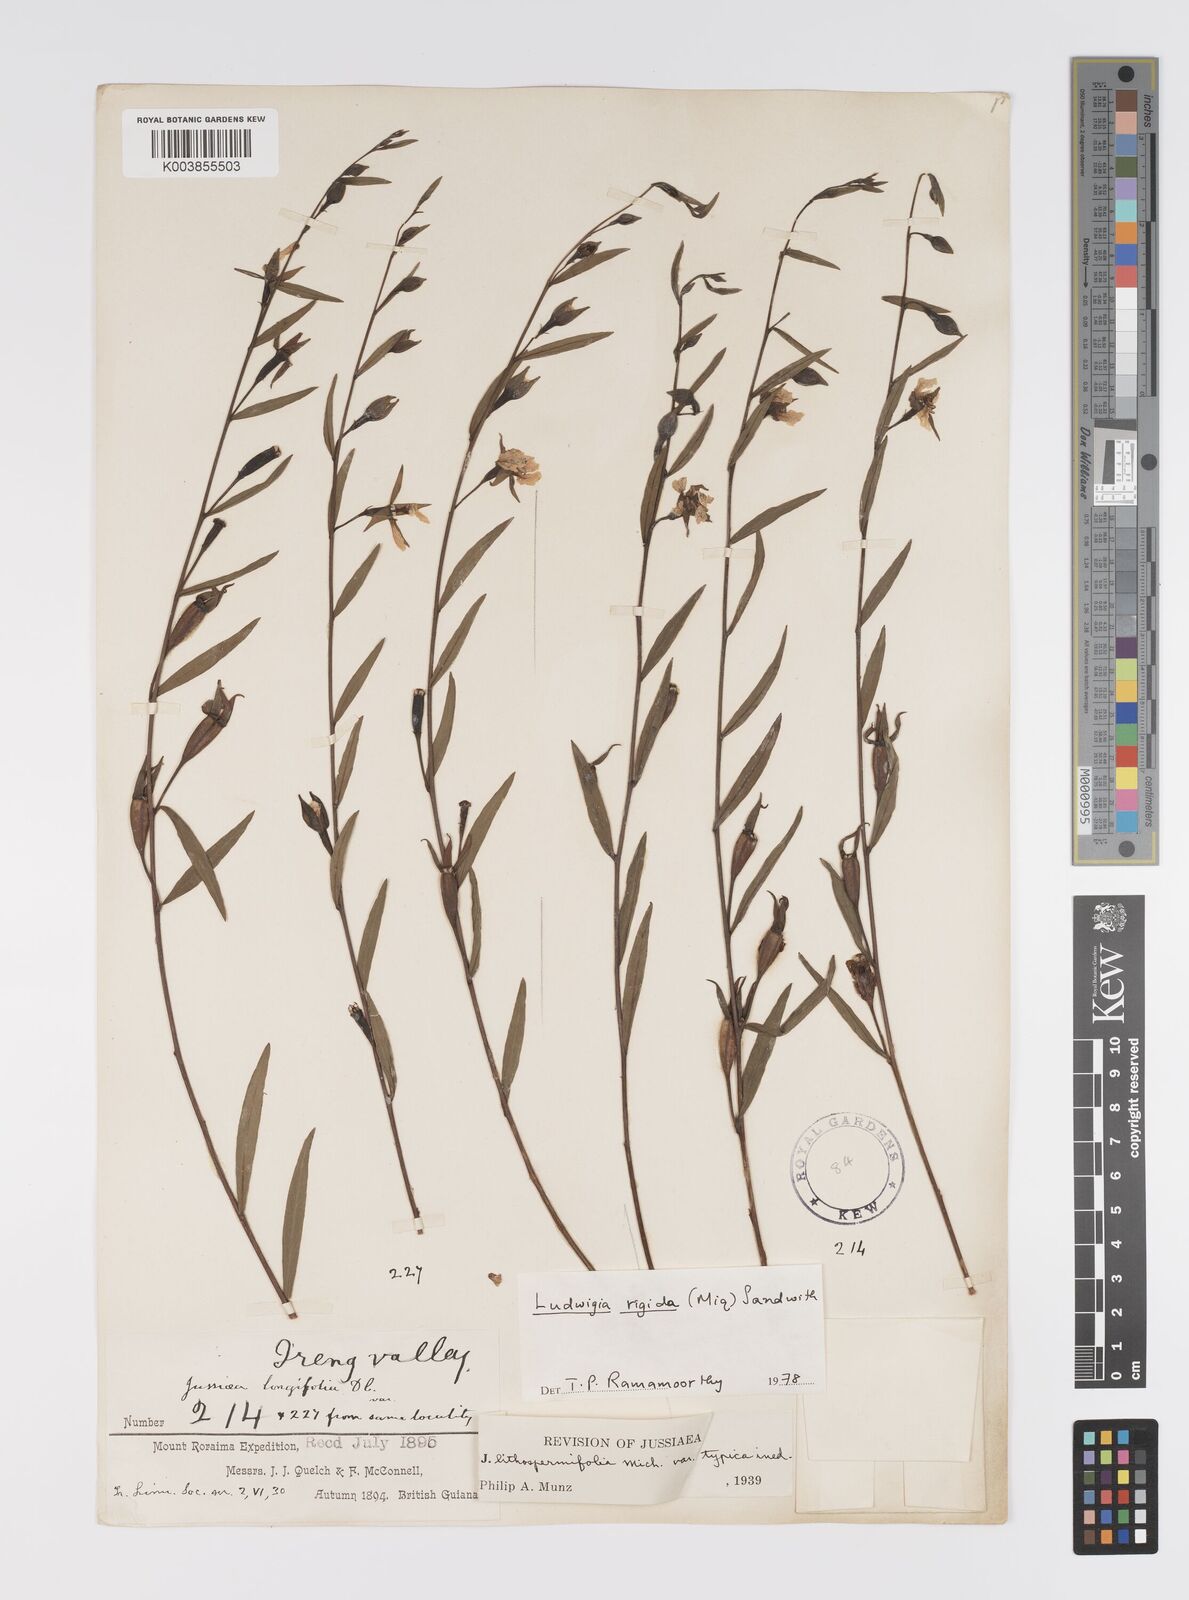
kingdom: Plantae
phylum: Tracheophyta
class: Magnoliopsida
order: Myrtales
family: Onagraceae
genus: Ludwigia
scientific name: Ludwigia rigida
